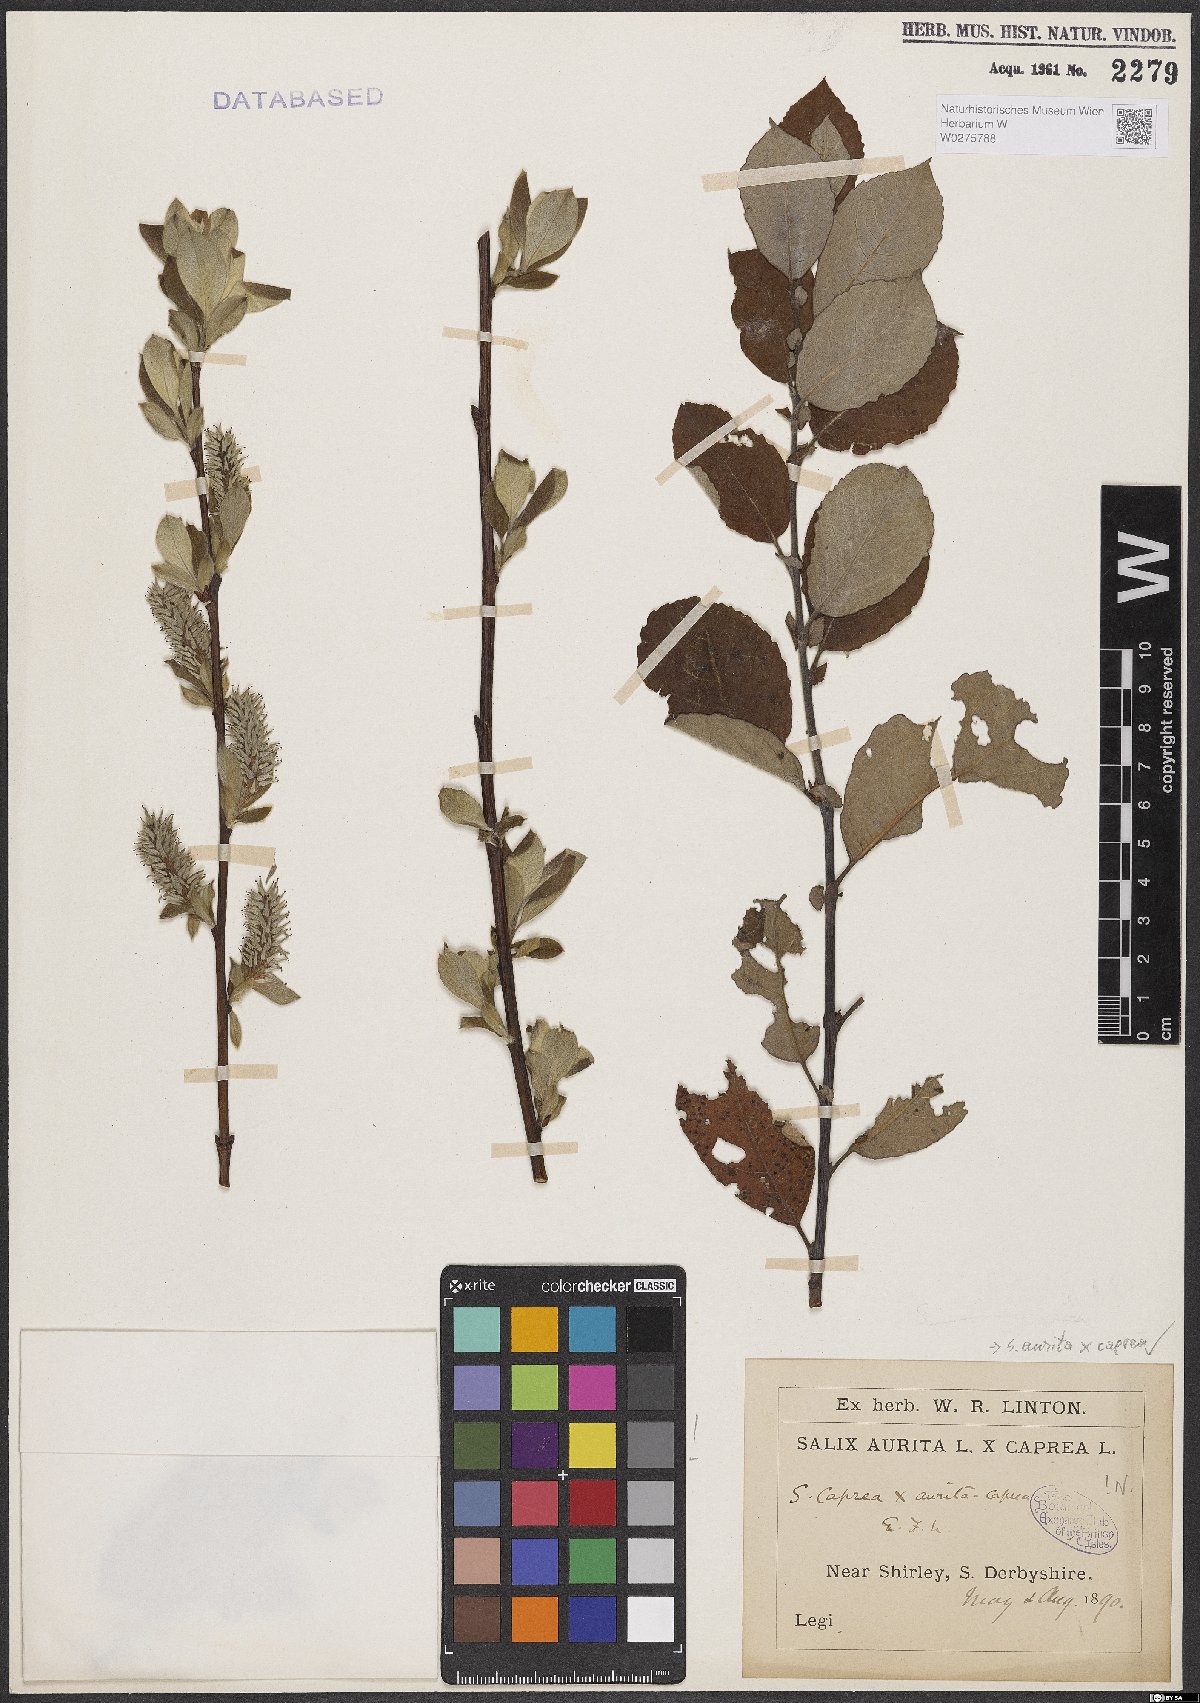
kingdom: Plantae
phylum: Tracheophyta
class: Magnoliopsida
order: Malpighiales
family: Salicaceae
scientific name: Salicaceae
